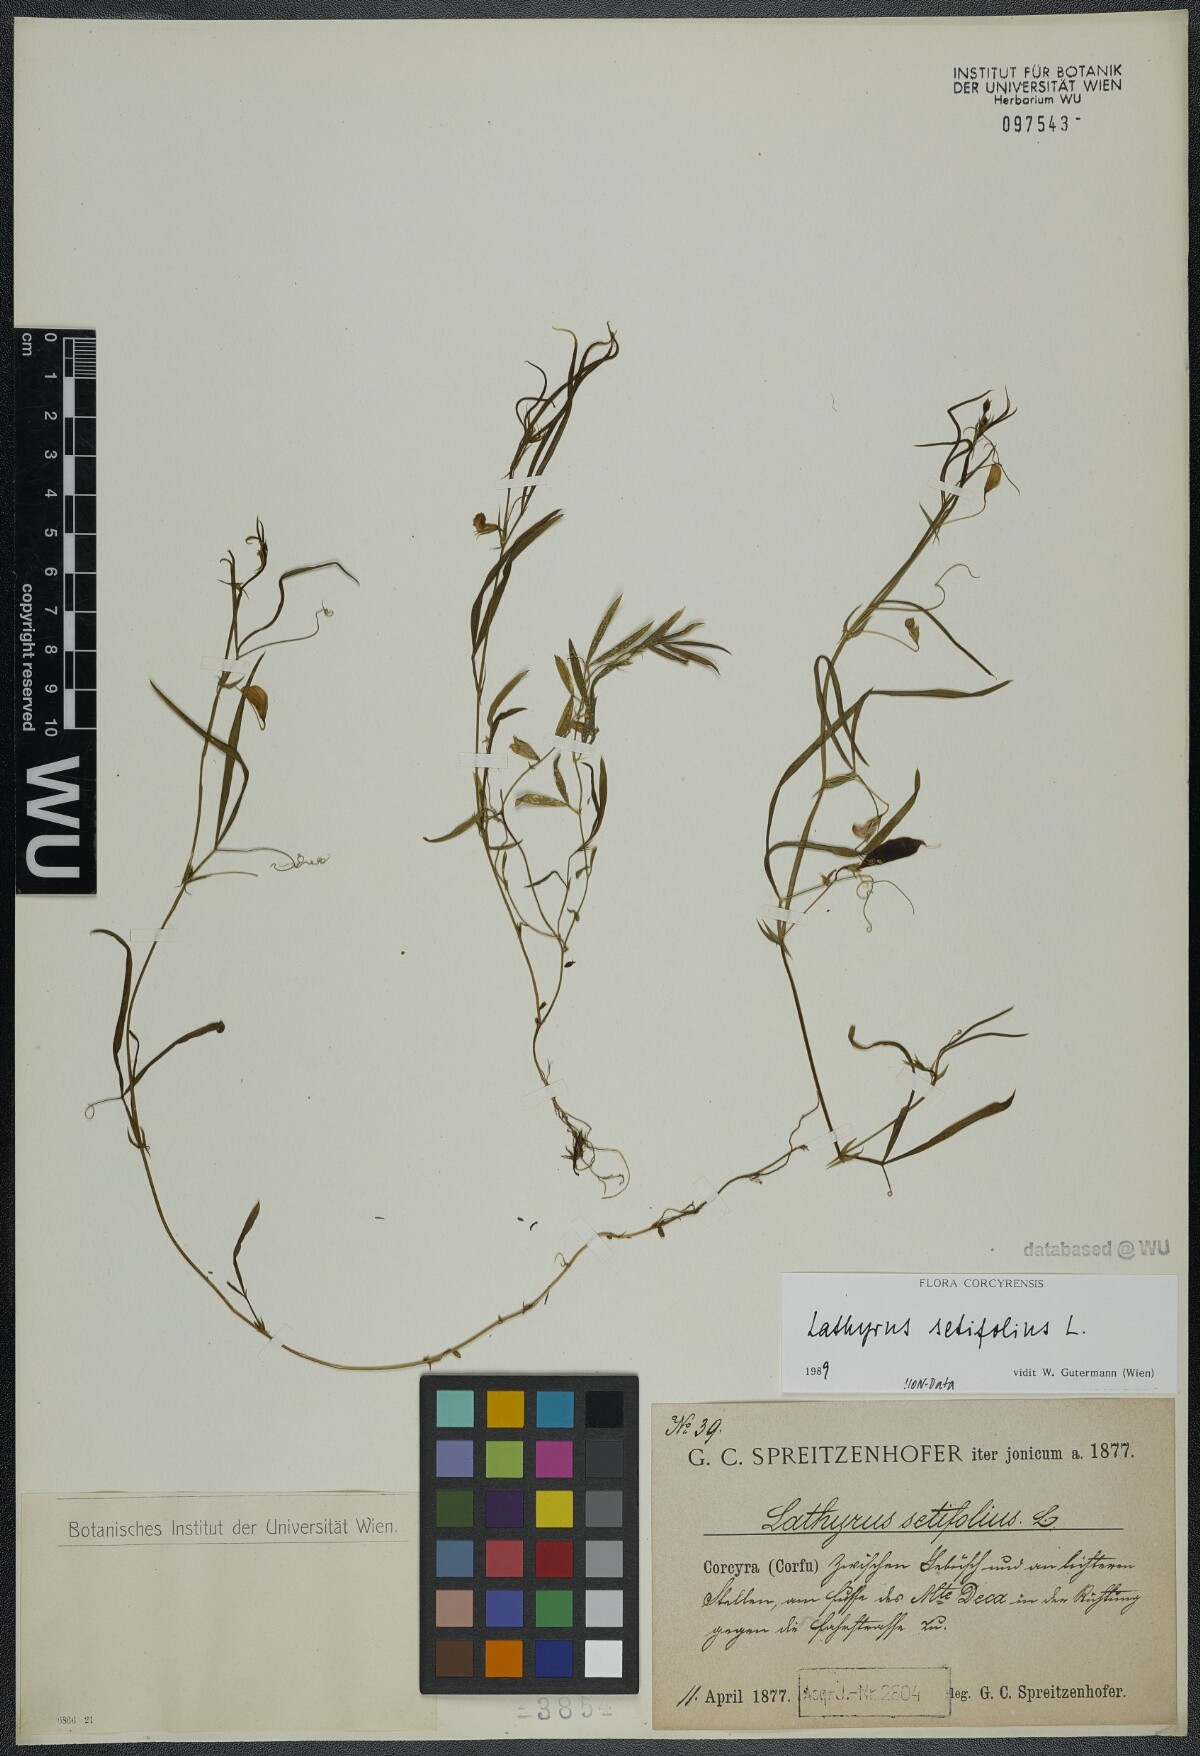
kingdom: Plantae
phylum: Tracheophyta
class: Magnoliopsida
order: Fabales
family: Fabaceae
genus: Lathyrus
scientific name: Lathyrus setifolius
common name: Brown vetchling
